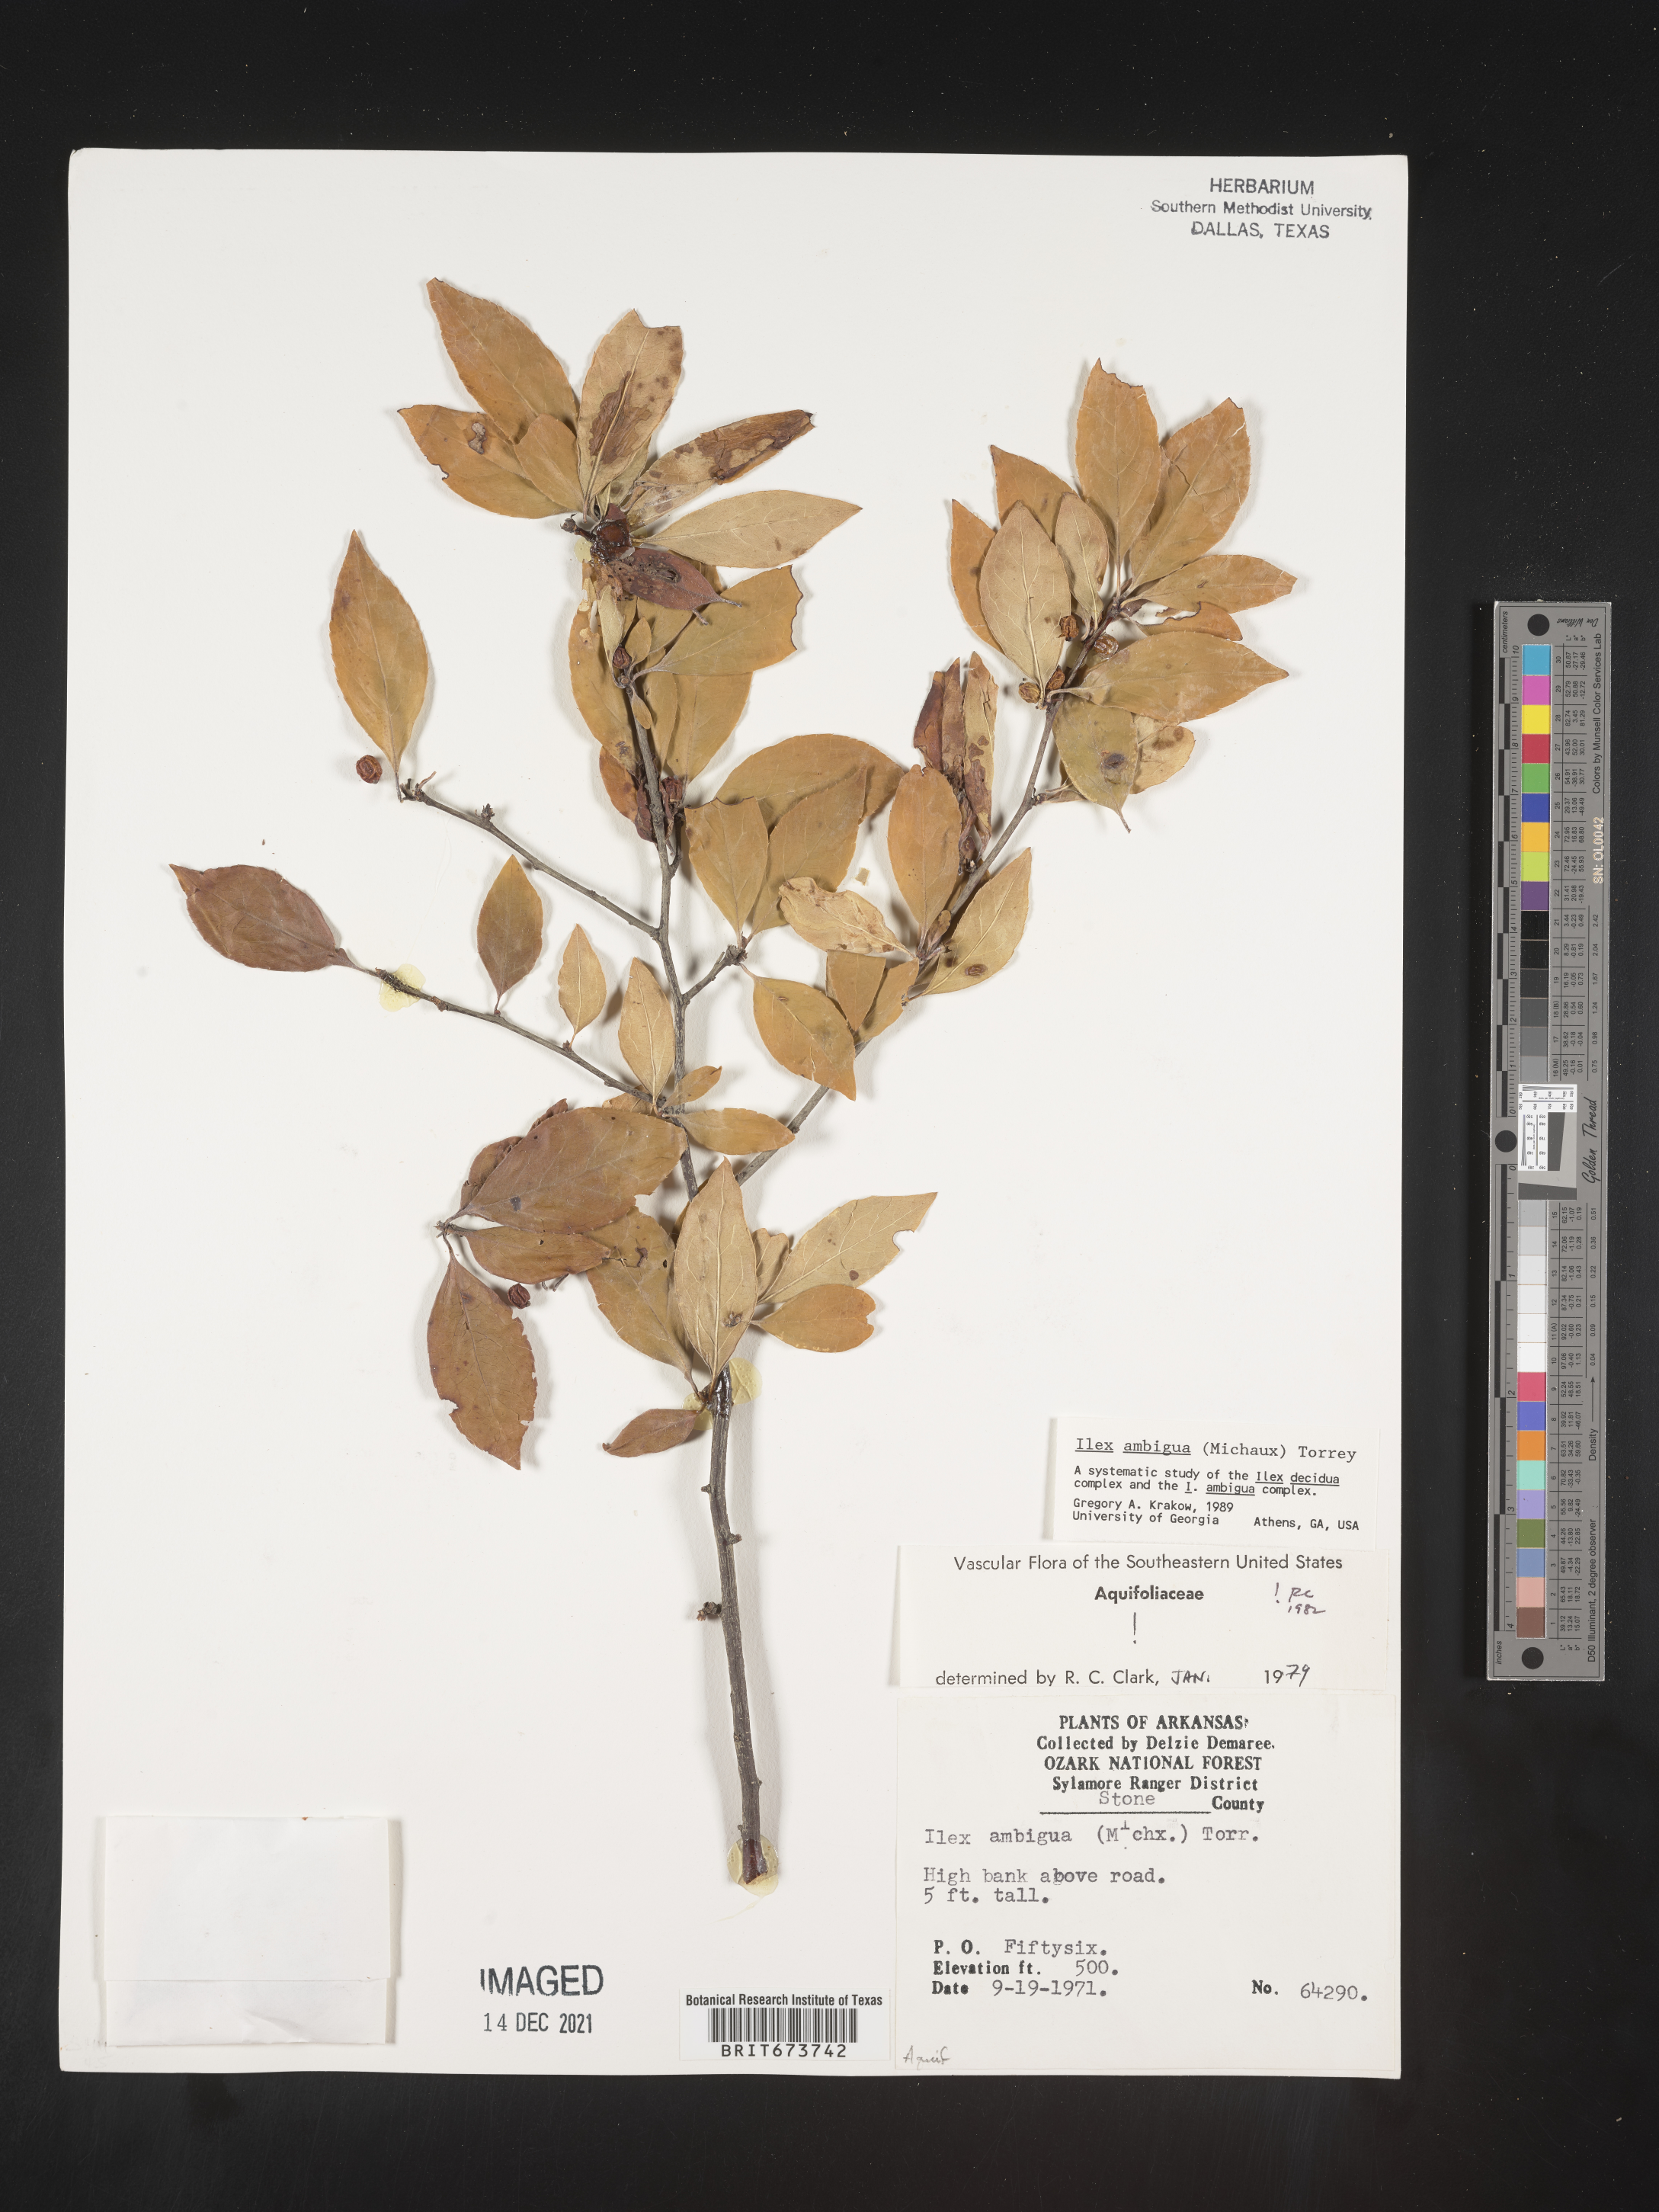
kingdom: Plantae
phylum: Tracheophyta
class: Magnoliopsida
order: Aquifoliales
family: Aquifoliaceae
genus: Ilex
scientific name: Ilex ambigua
